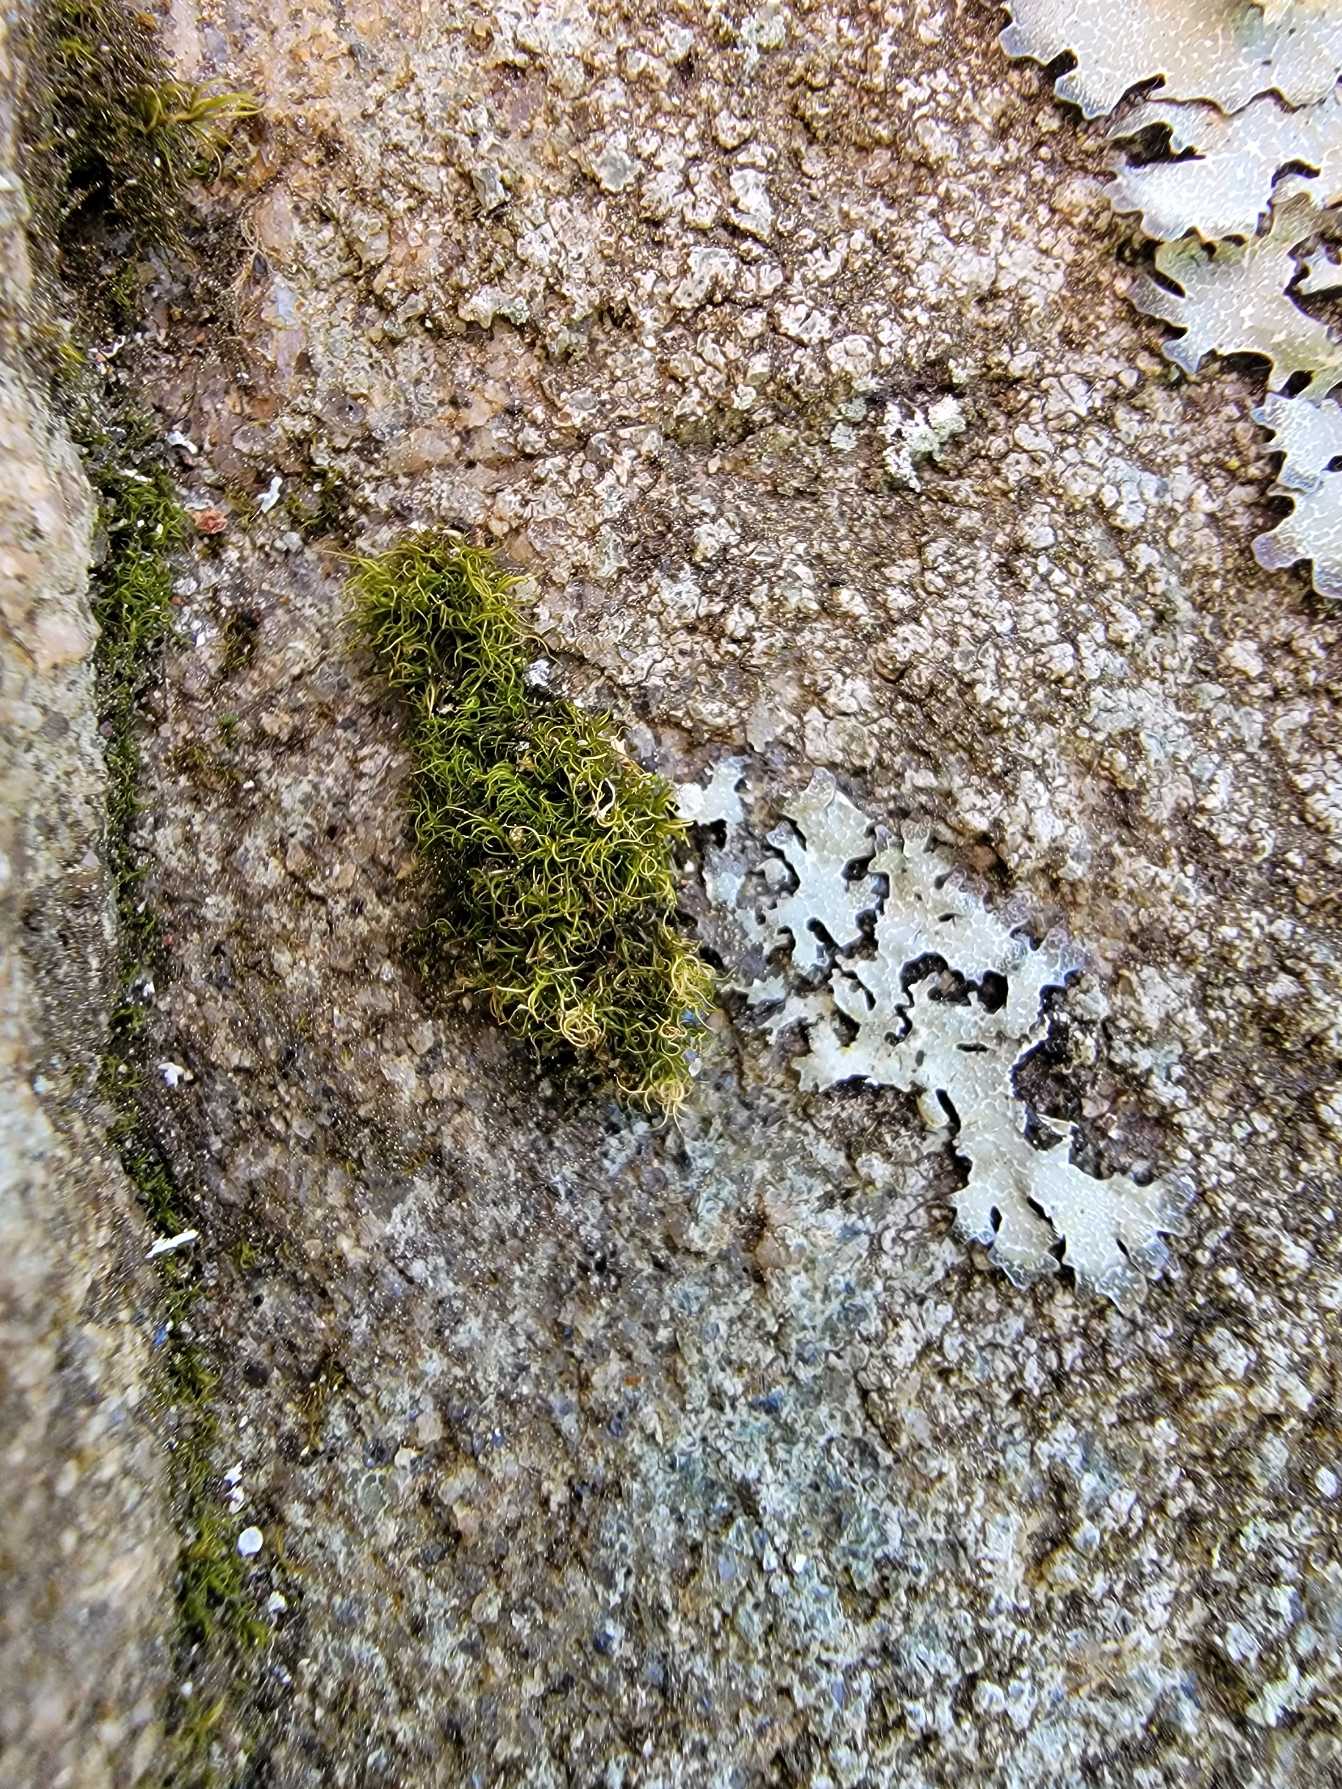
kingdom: Plantae
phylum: Bryophyta
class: Bryopsida
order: Dicranales
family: Rhabdoweisiaceae
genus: Arctoa
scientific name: Arctoa blyttii
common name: Kruset strumamos
